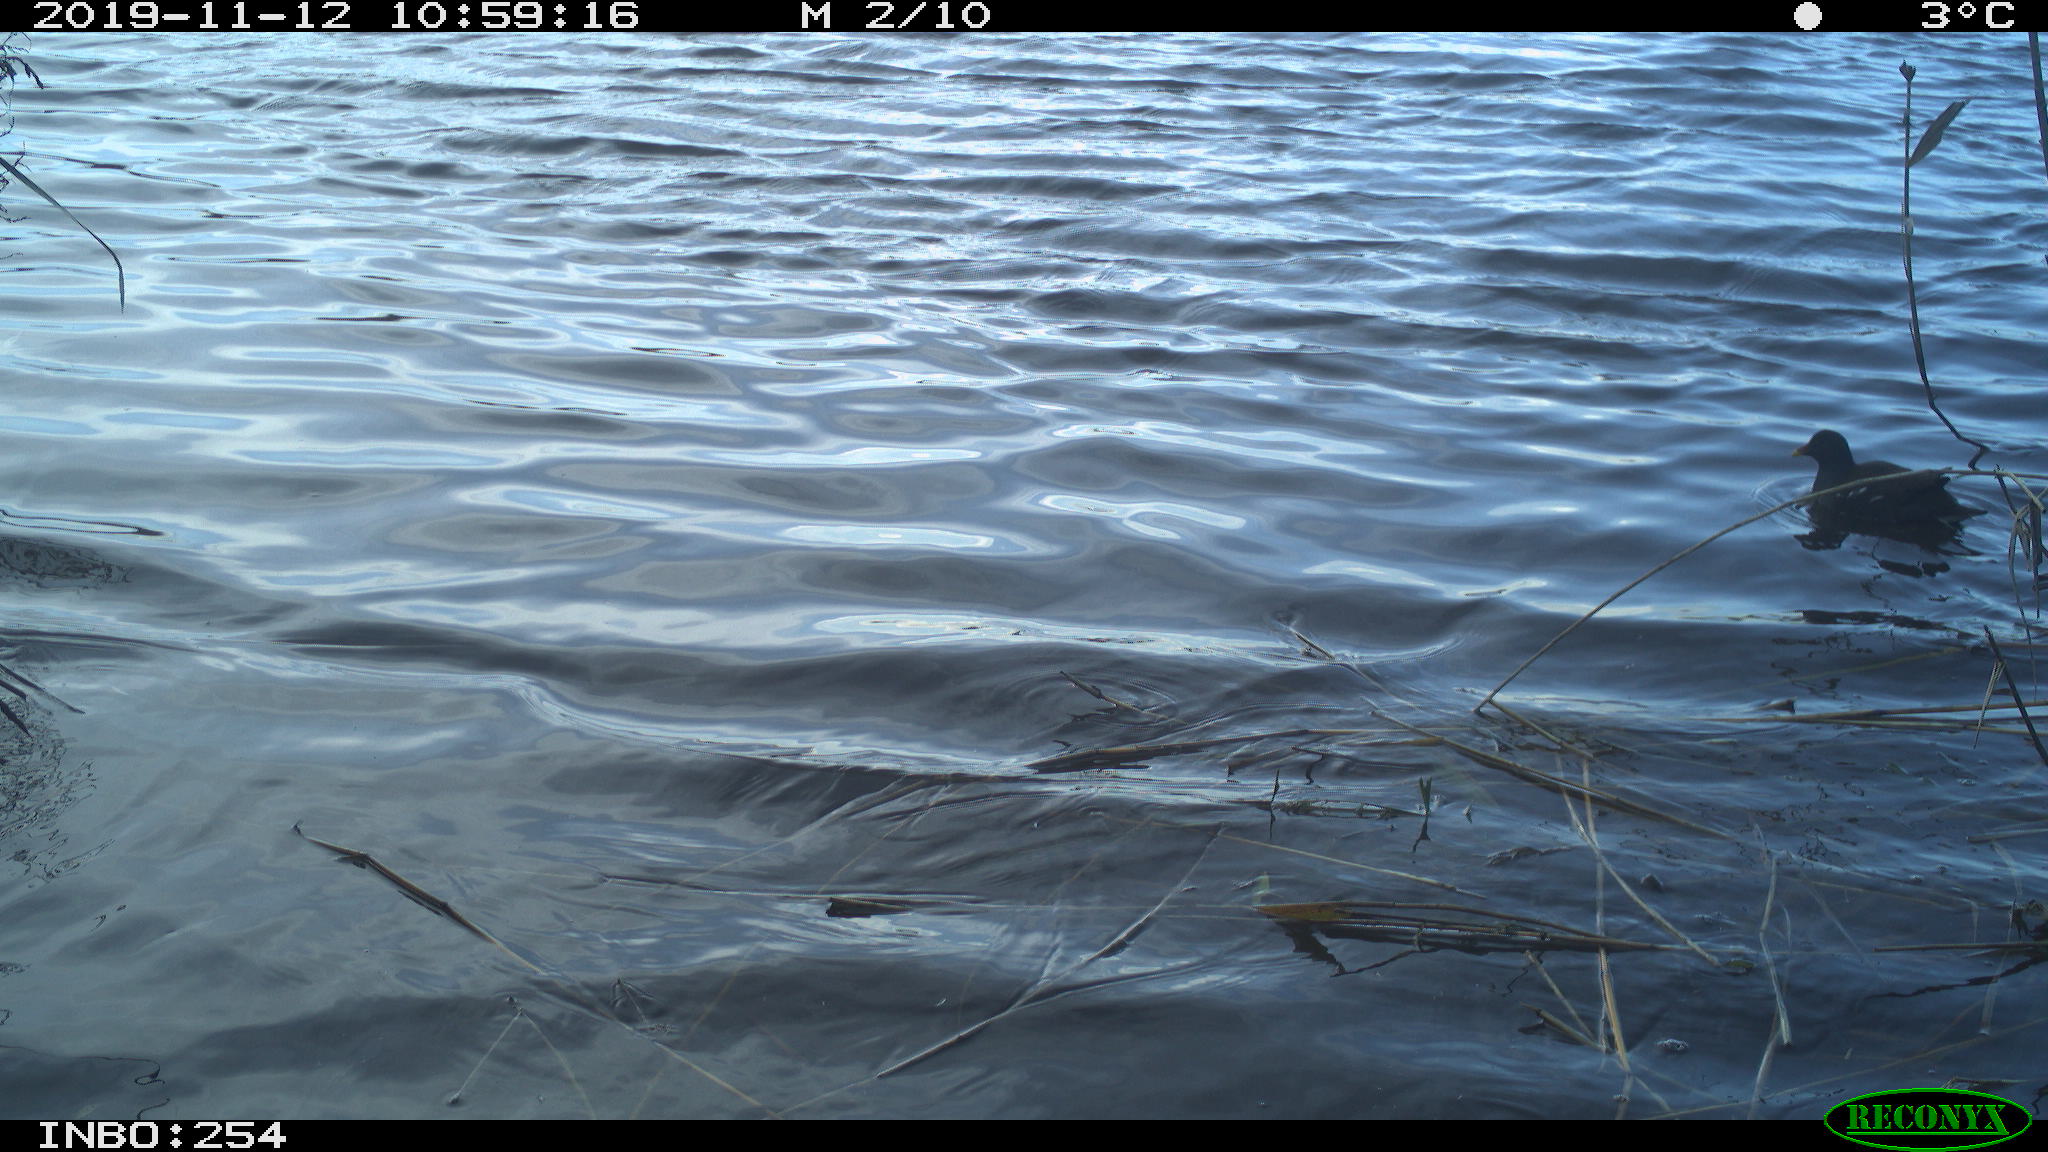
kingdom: Animalia
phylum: Chordata
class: Aves
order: Gruiformes
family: Rallidae
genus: Gallinula
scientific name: Gallinula chloropus
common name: Common moorhen
